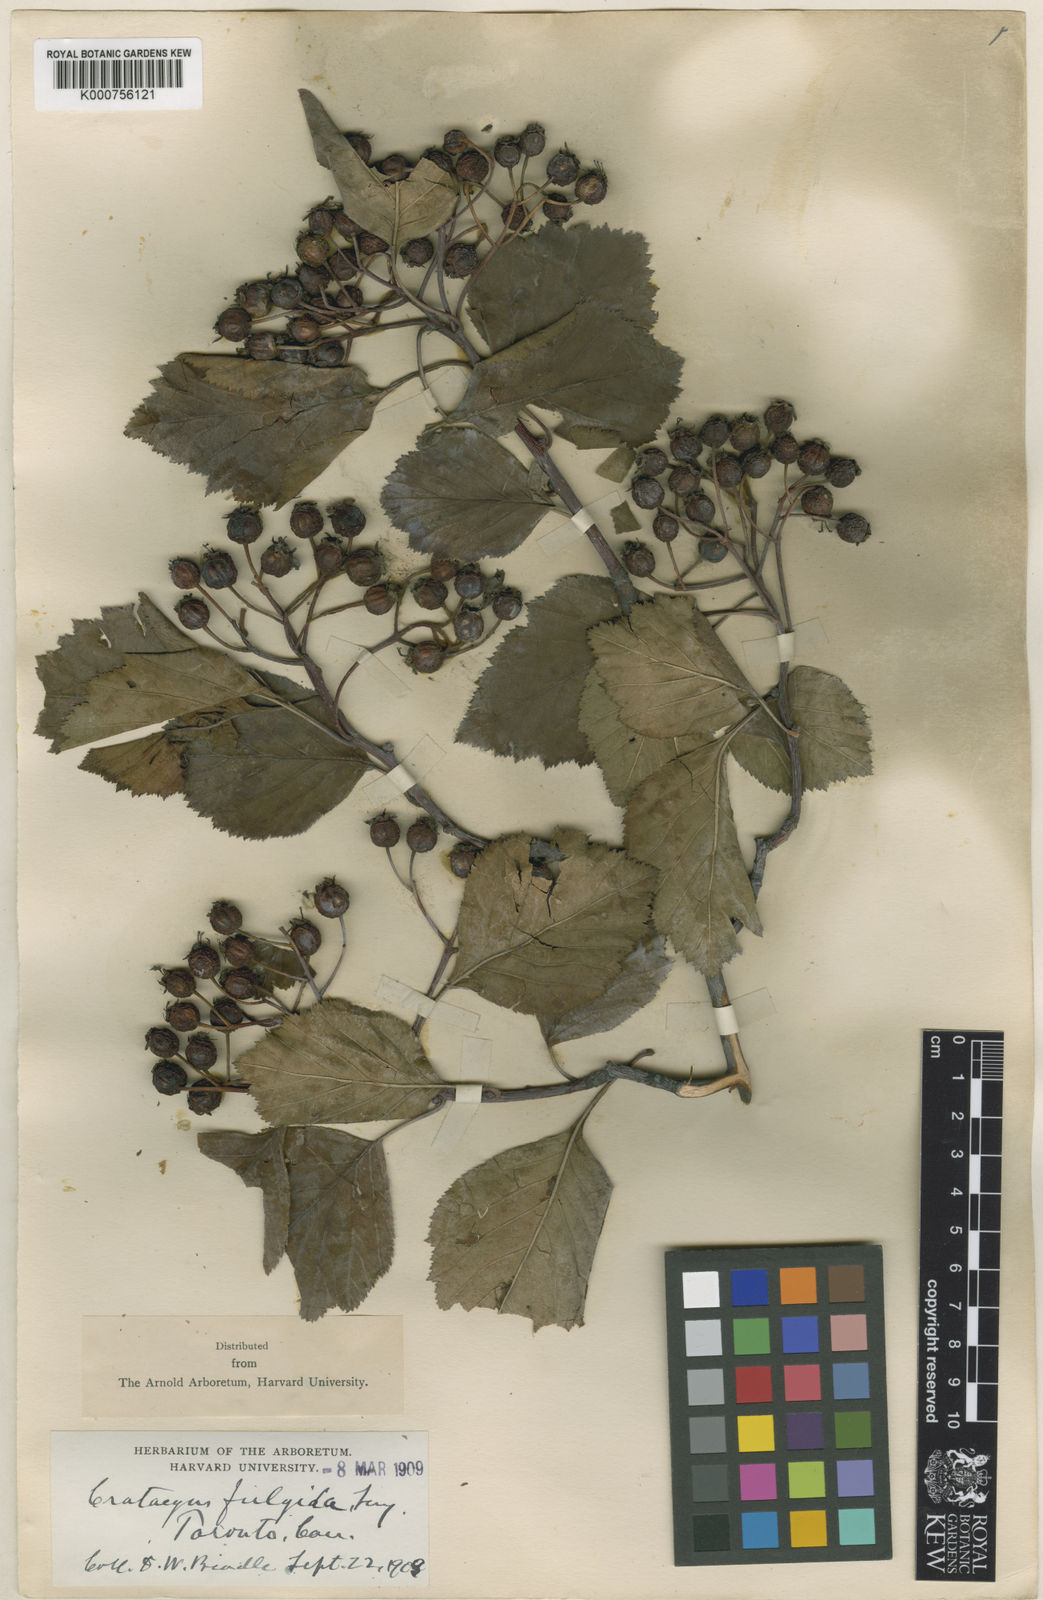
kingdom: Plantae
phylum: Tracheophyta
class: Magnoliopsida
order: Rosales
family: Rosaceae
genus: Crataegus
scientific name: Crataegus fulgida
